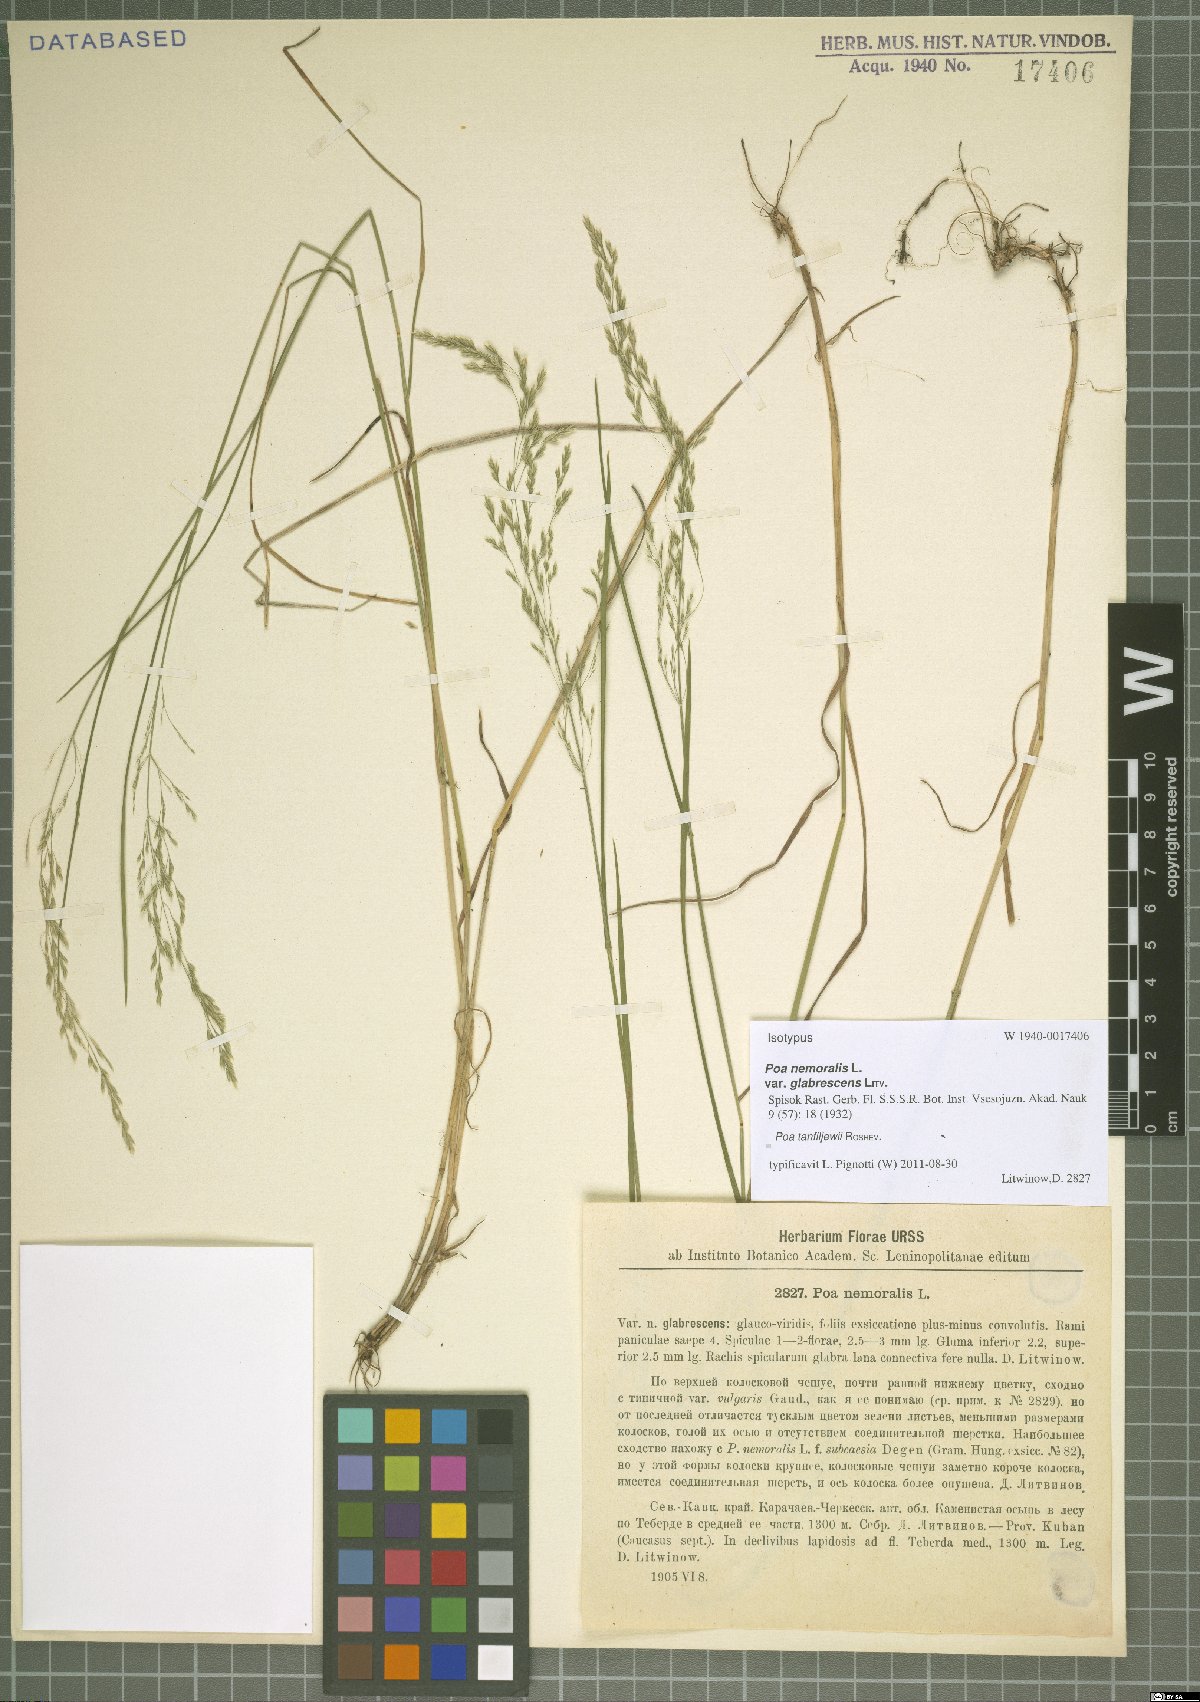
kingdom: Plantae
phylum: Tracheophyta
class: Liliopsida
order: Poales
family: Poaceae
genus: Poa
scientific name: Poa tanfiljewii
